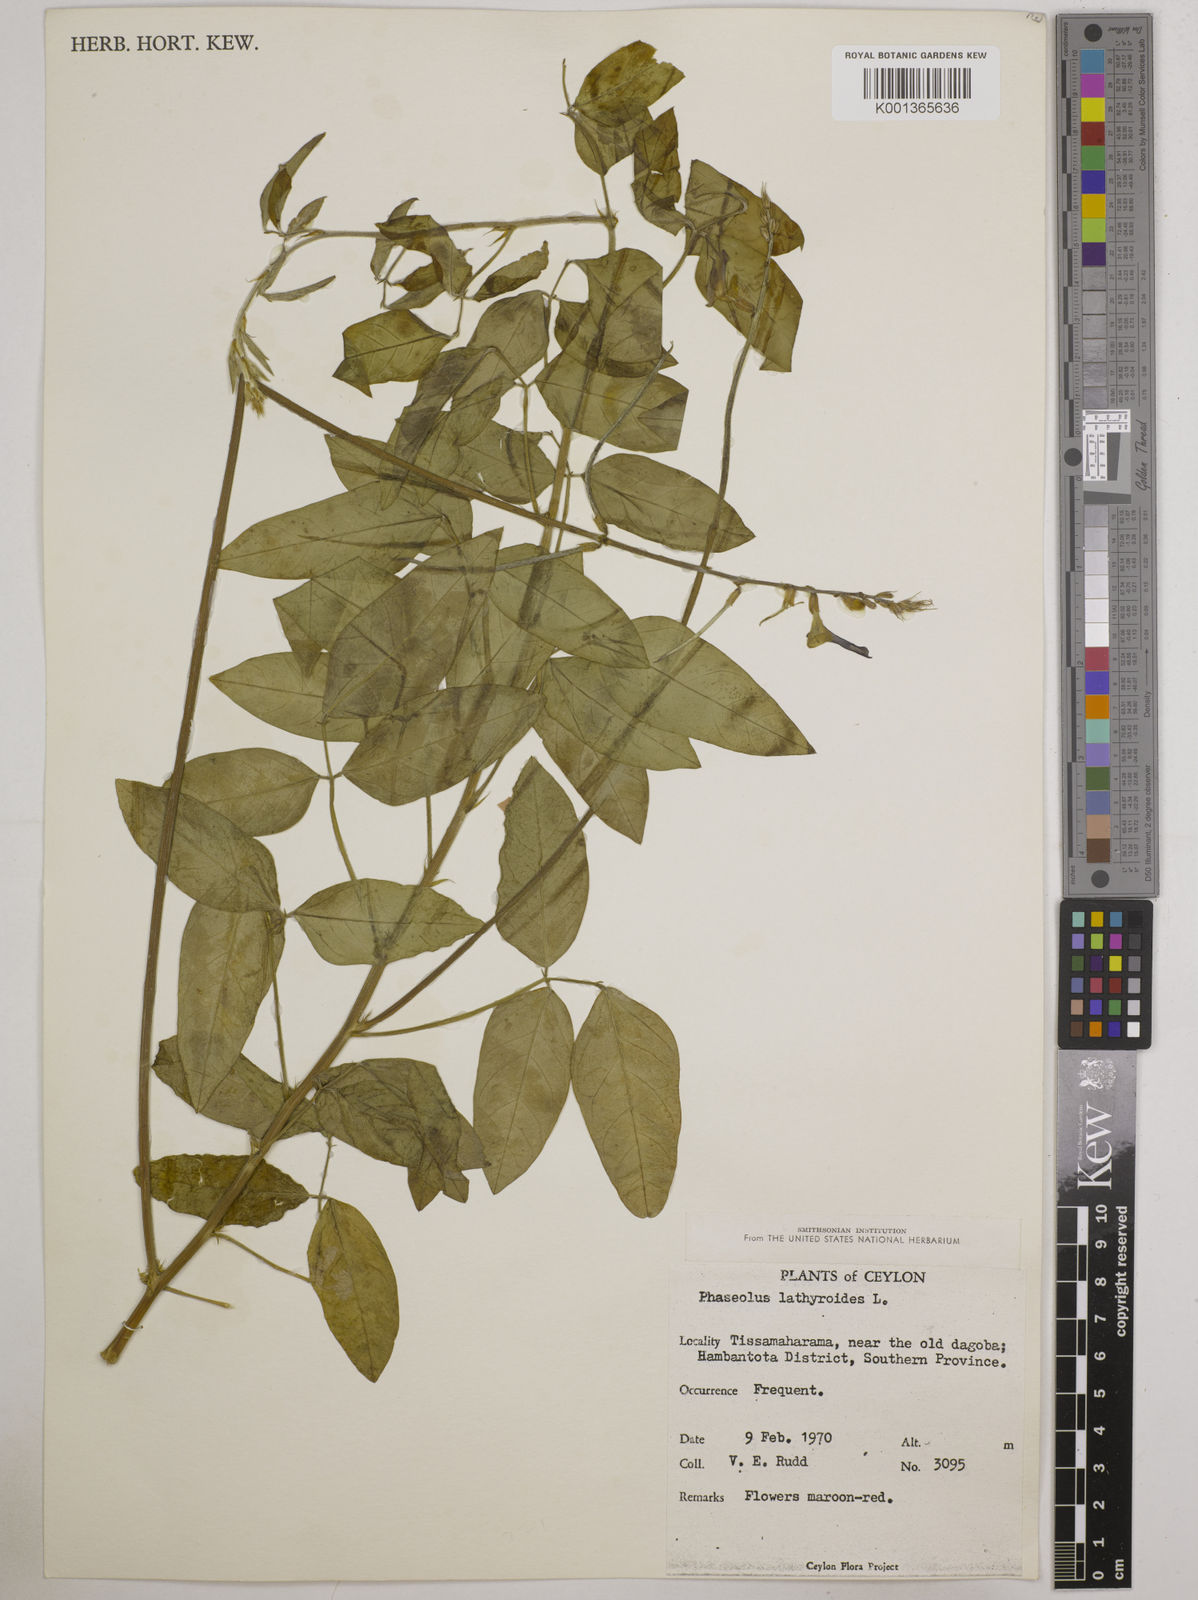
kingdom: Plantae
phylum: Tracheophyta
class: Magnoliopsida
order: Fabales
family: Fabaceae
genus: Macroptilium
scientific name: Macroptilium lathyroides
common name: Wild bushbean
